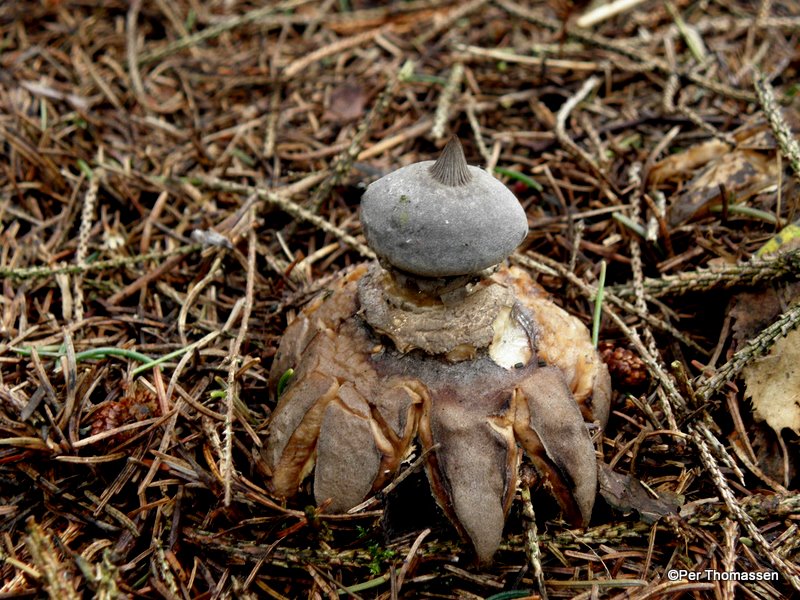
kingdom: Fungi
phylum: Basidiomycota
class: Agaricomycetes
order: Geastrales
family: Geastraceae
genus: Geastrum
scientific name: Geastrum pectinatum
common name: stilket stjernebold
